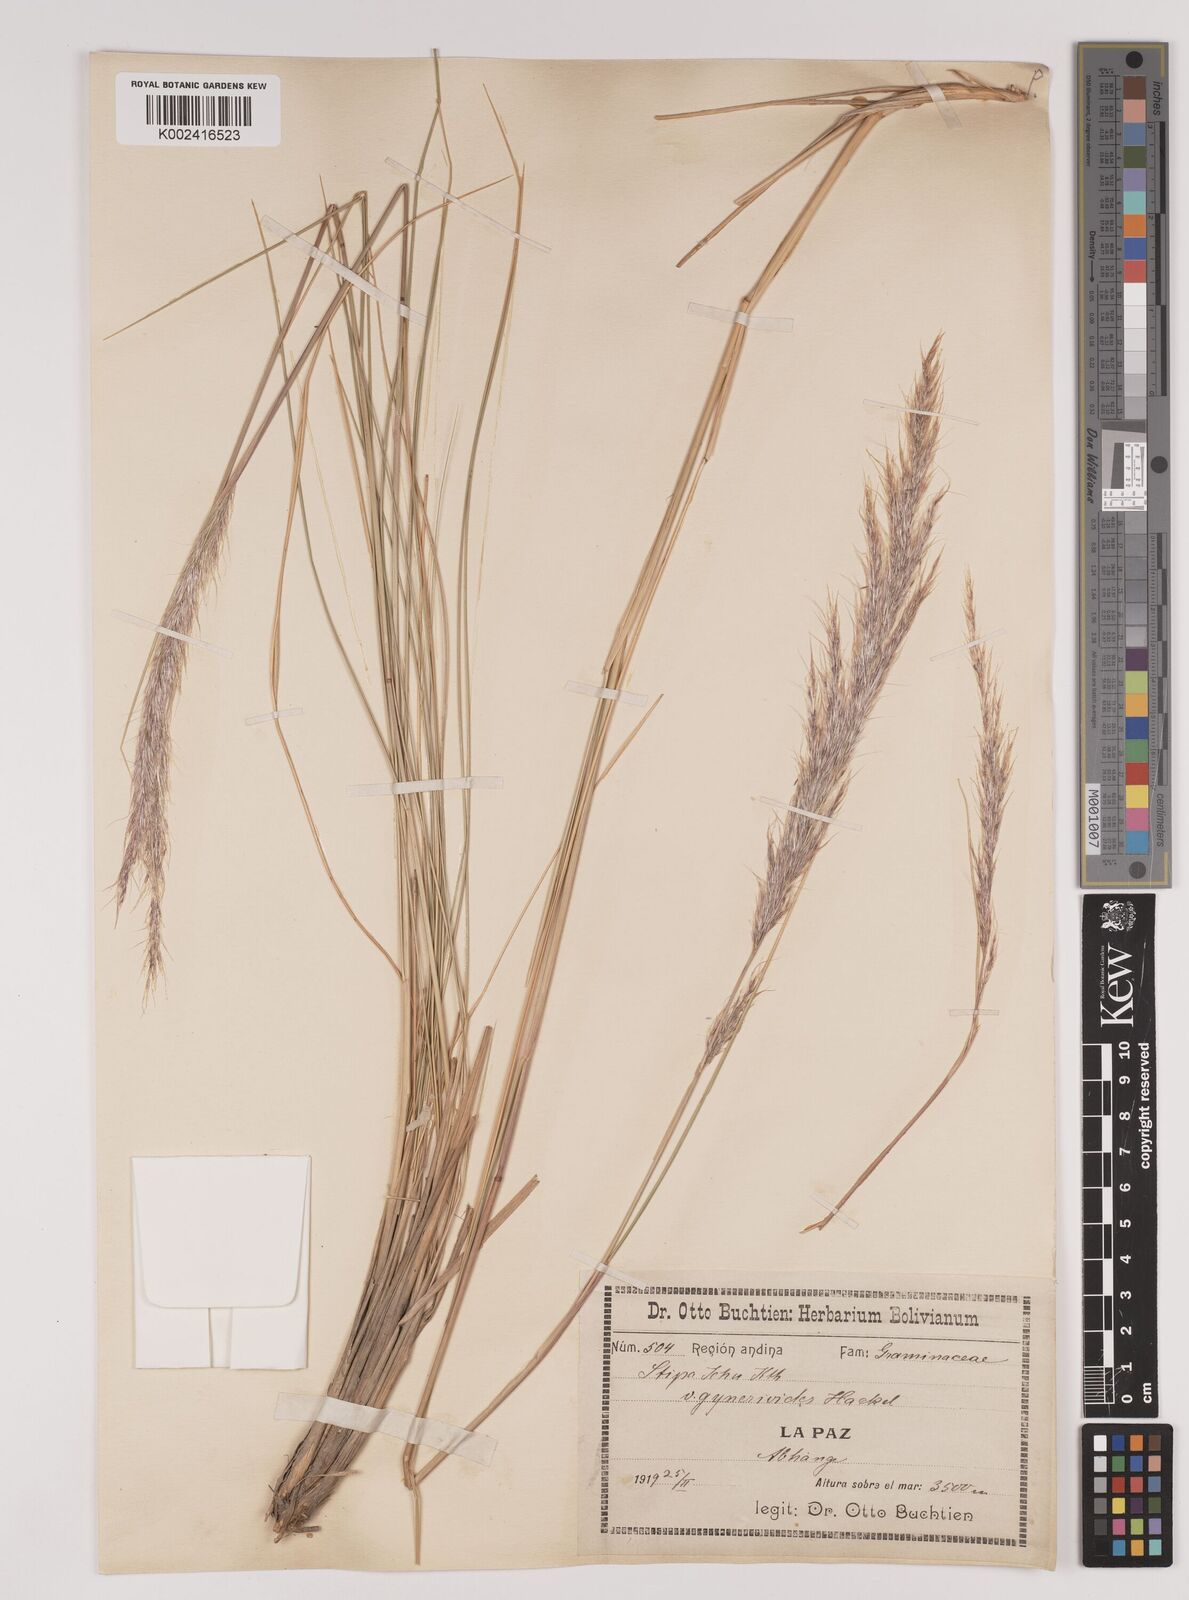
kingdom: Plantae
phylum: Tracheophyta
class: Liliopsida
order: Poales
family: Poaceae
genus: Jarava
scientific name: Jarava ichu
